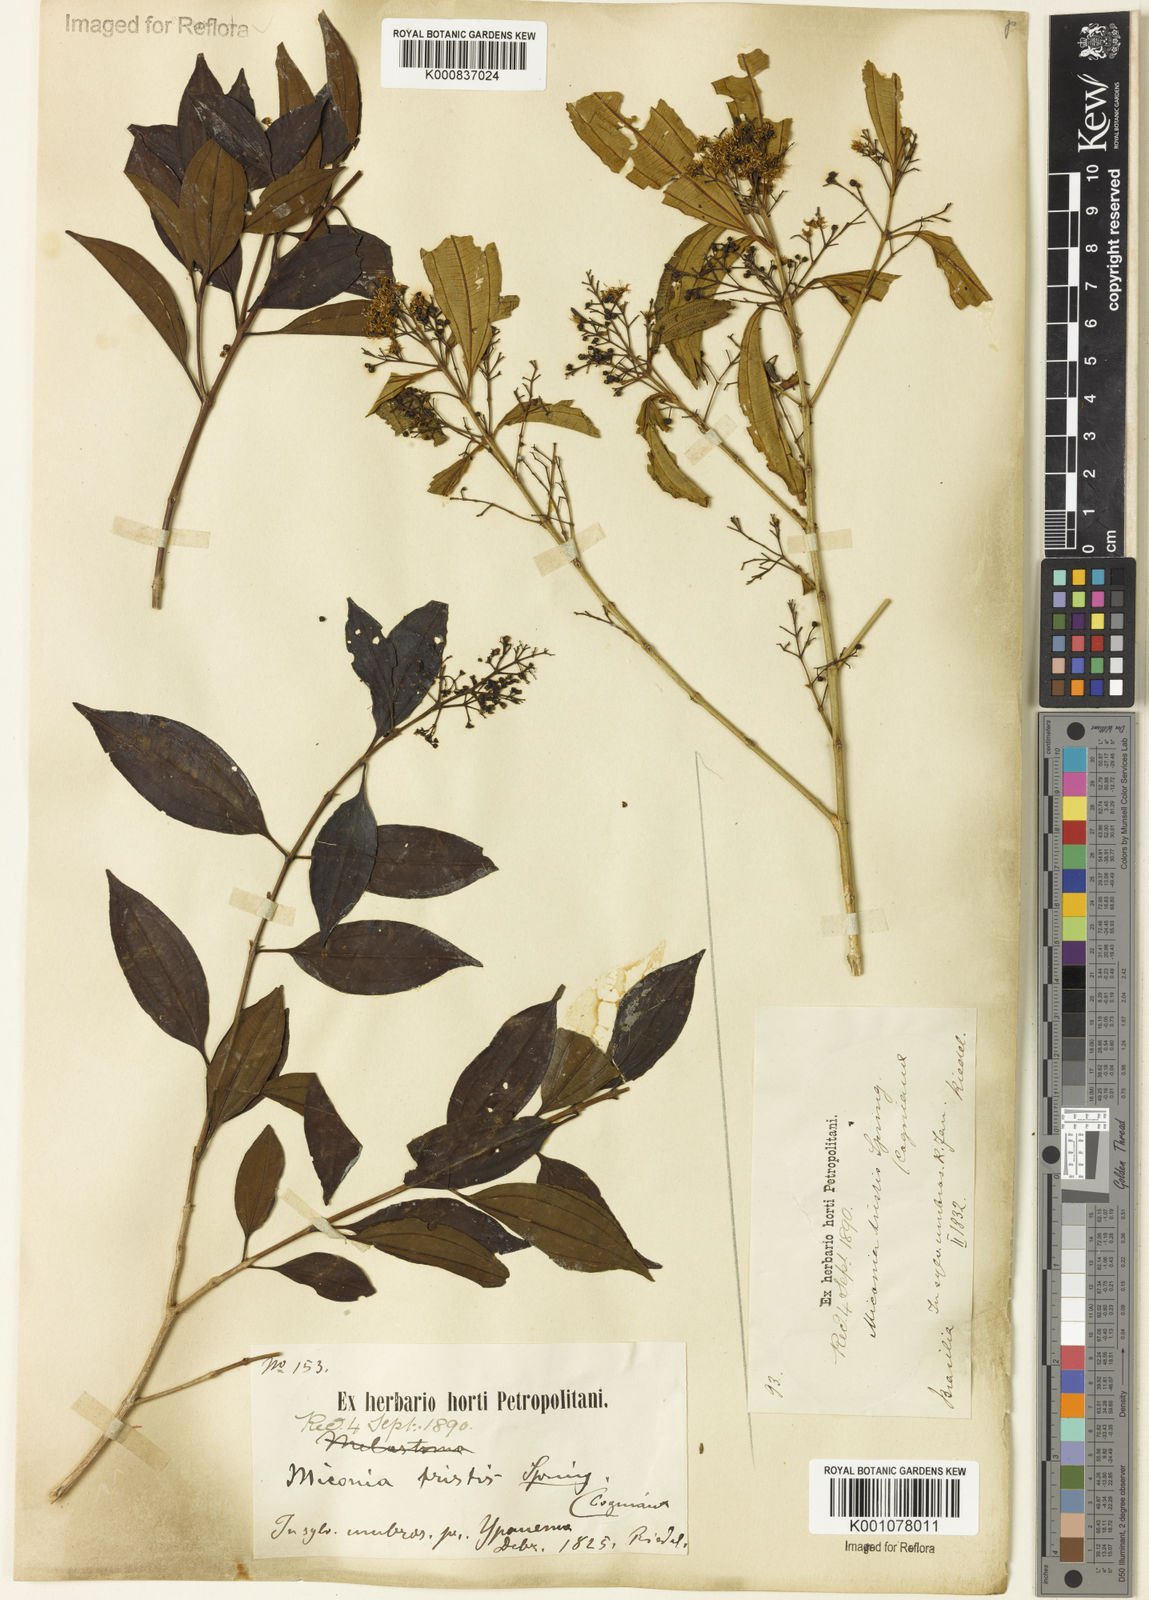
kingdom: Plantae
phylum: Tracheophyta
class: Magnoliopsida
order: Myrtales
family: Melastomataceae
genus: Miconia
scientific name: Miconia
